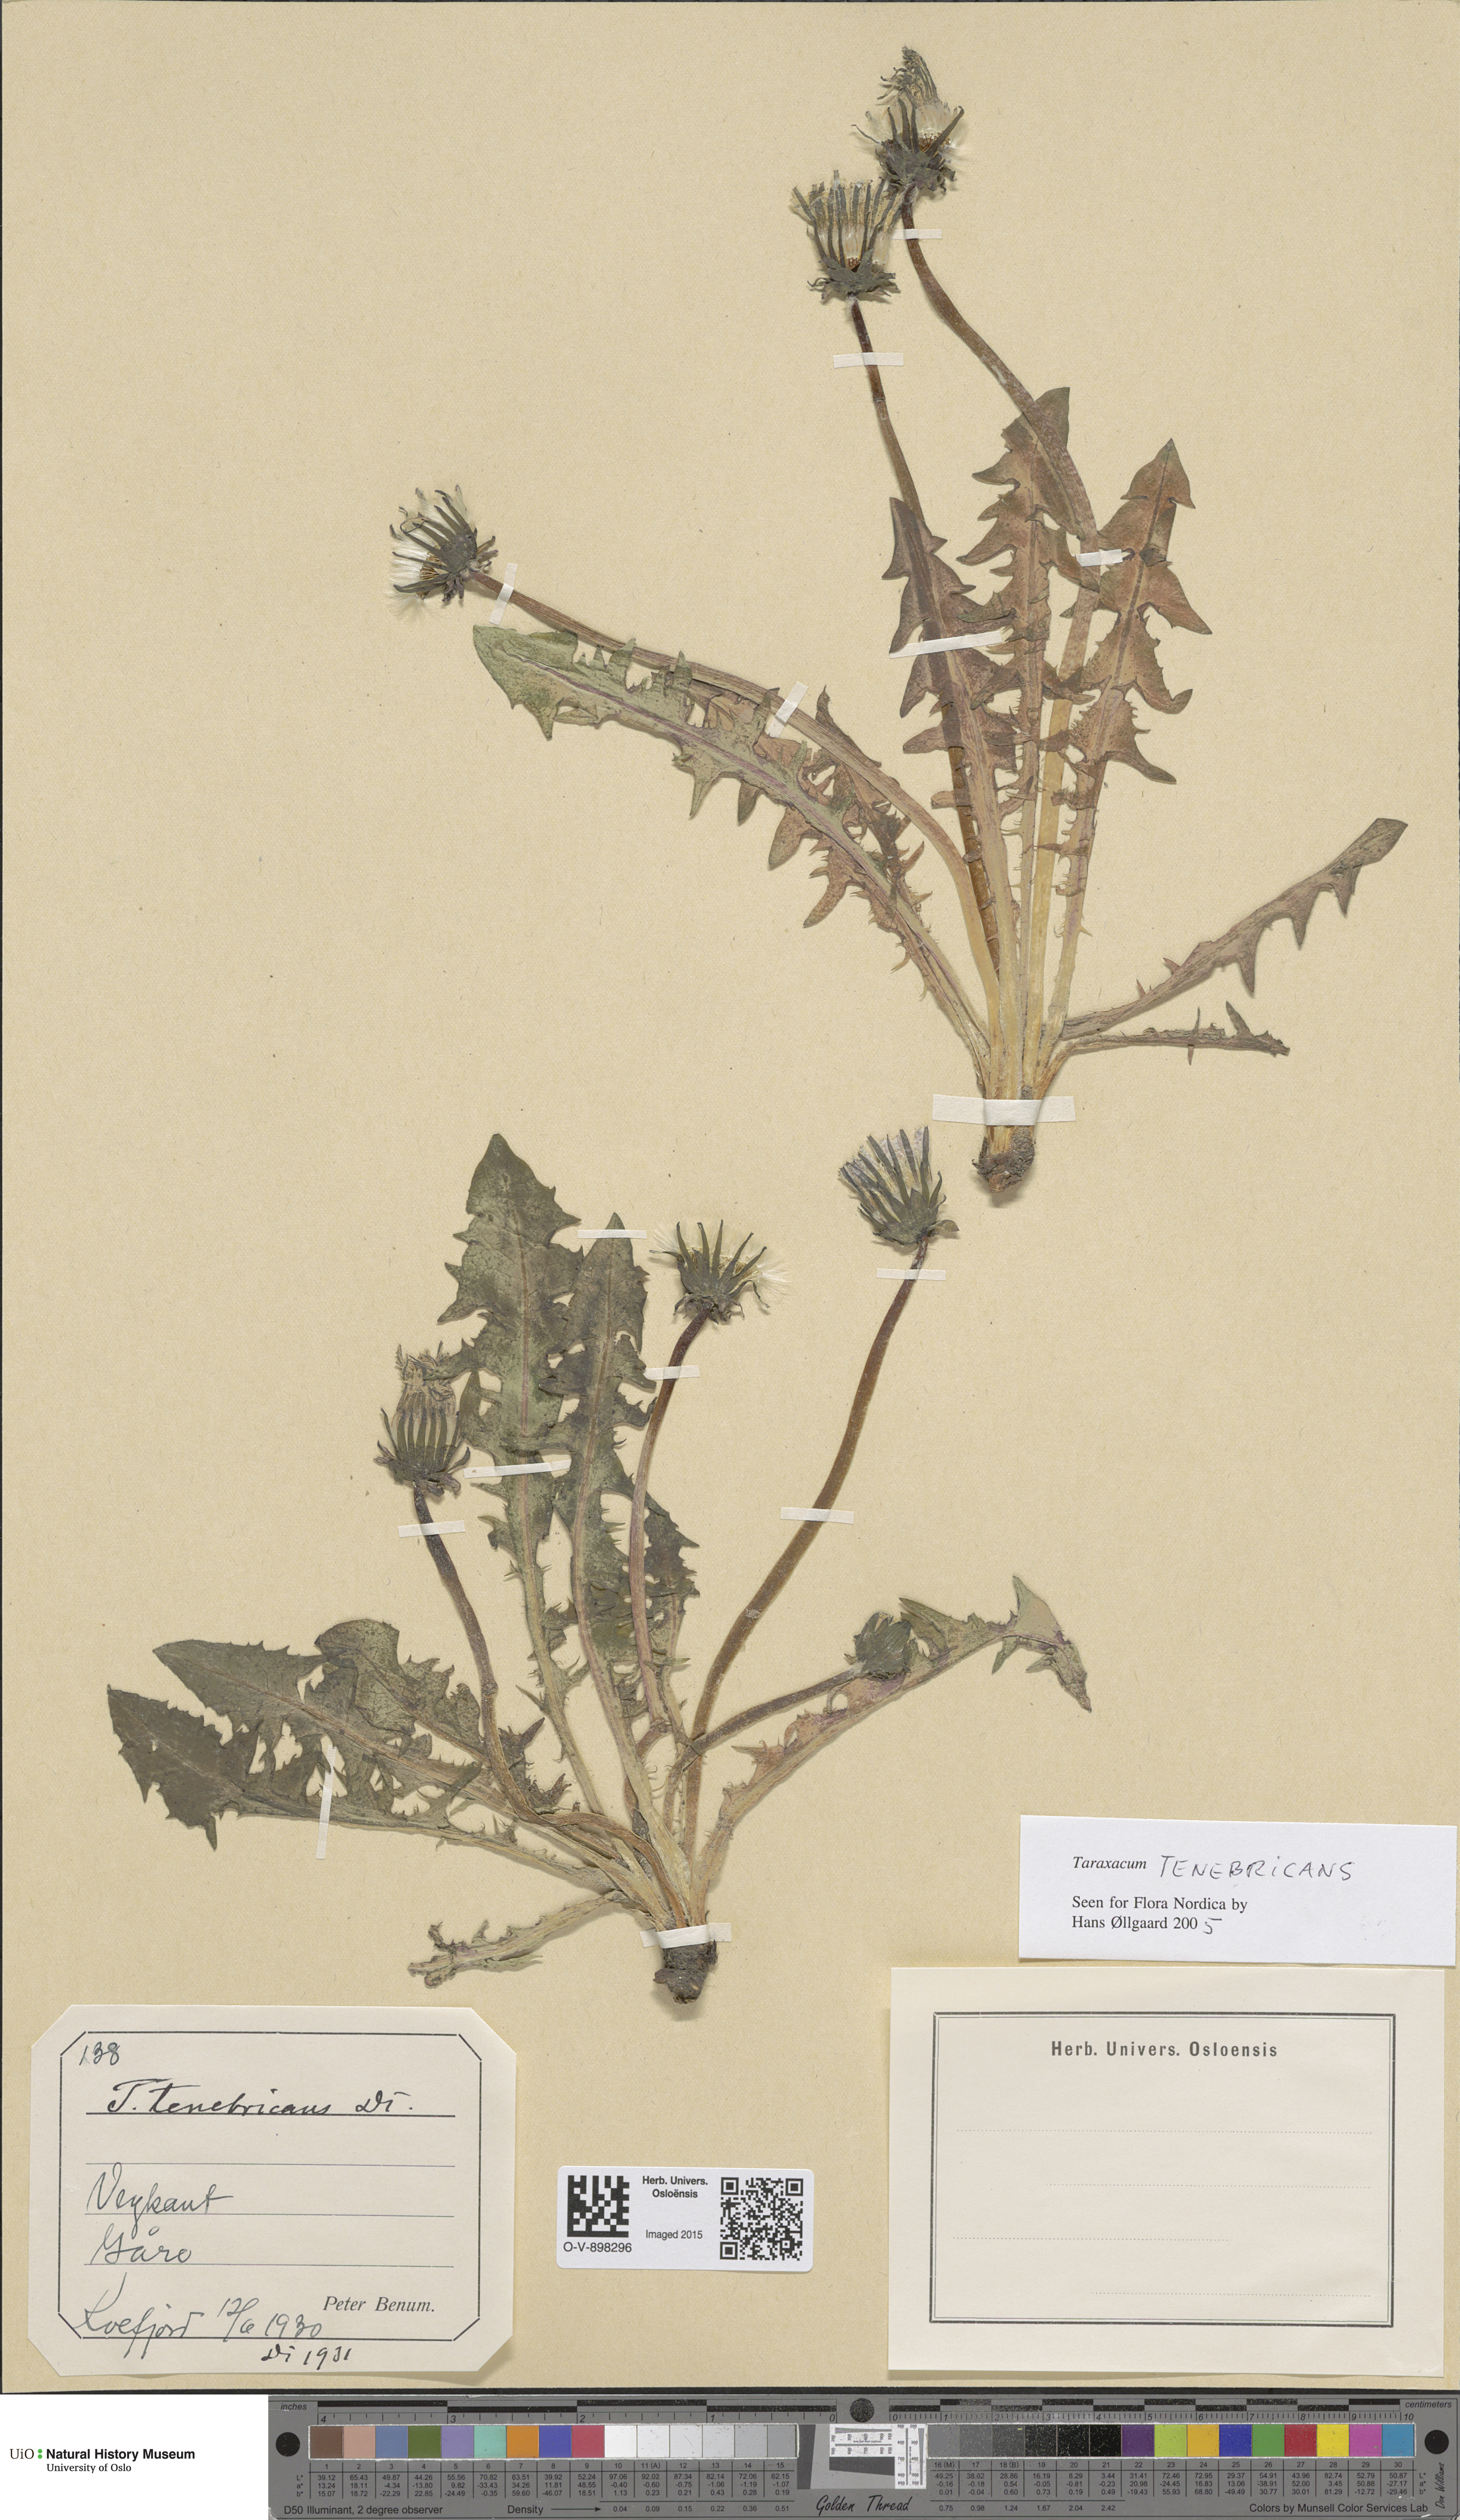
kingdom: Plantae
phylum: Tracheophyta
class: Magnoliopsida
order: Asterales
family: Asteraceae
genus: Taraxacum
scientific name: Taraxacum tenebricans
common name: Shiny-leaved dandelion
